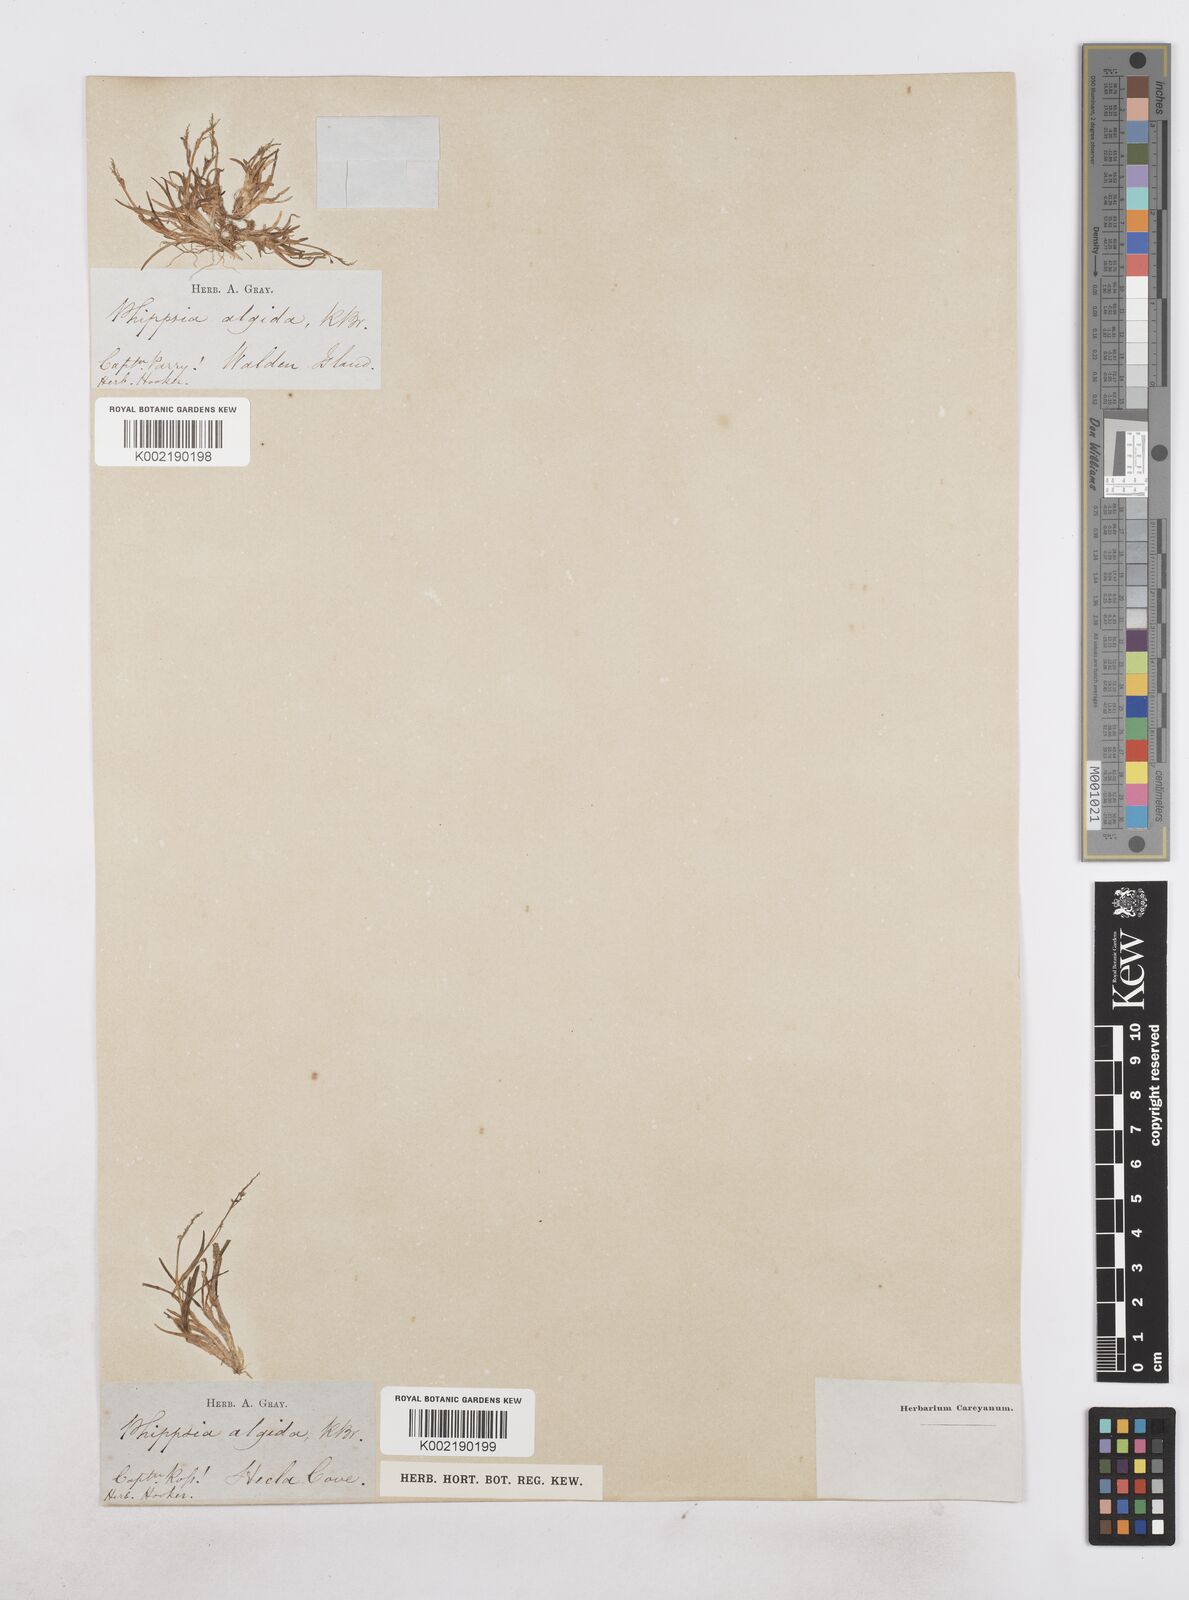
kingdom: Plantae
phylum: Tracheophyta
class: Liliopsida
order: Poales
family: Poaceae
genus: Phippsia
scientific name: Phippsia algida
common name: Ice grass
